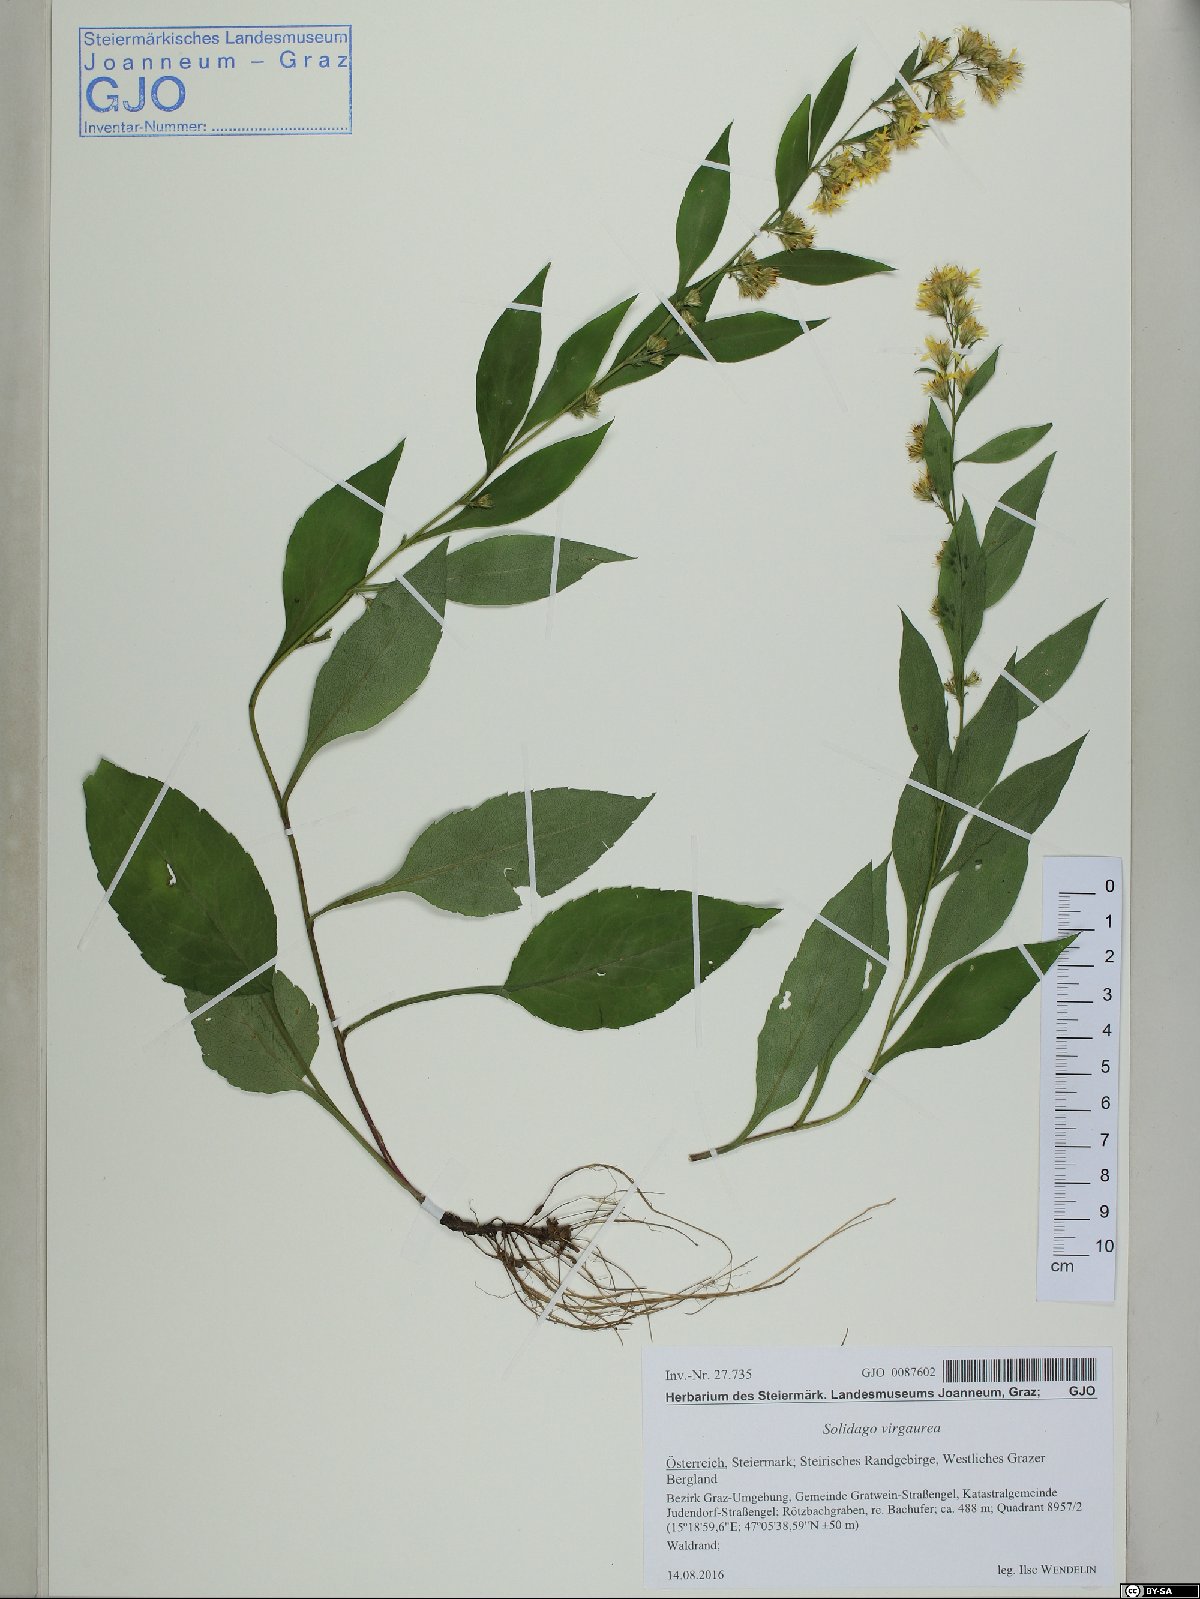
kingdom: Plantae
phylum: Tracheophyta
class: Magnoliopsida
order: Asterales
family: Asteraceae
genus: Solidago
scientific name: Solidago virgaurea
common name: Goldenrod
